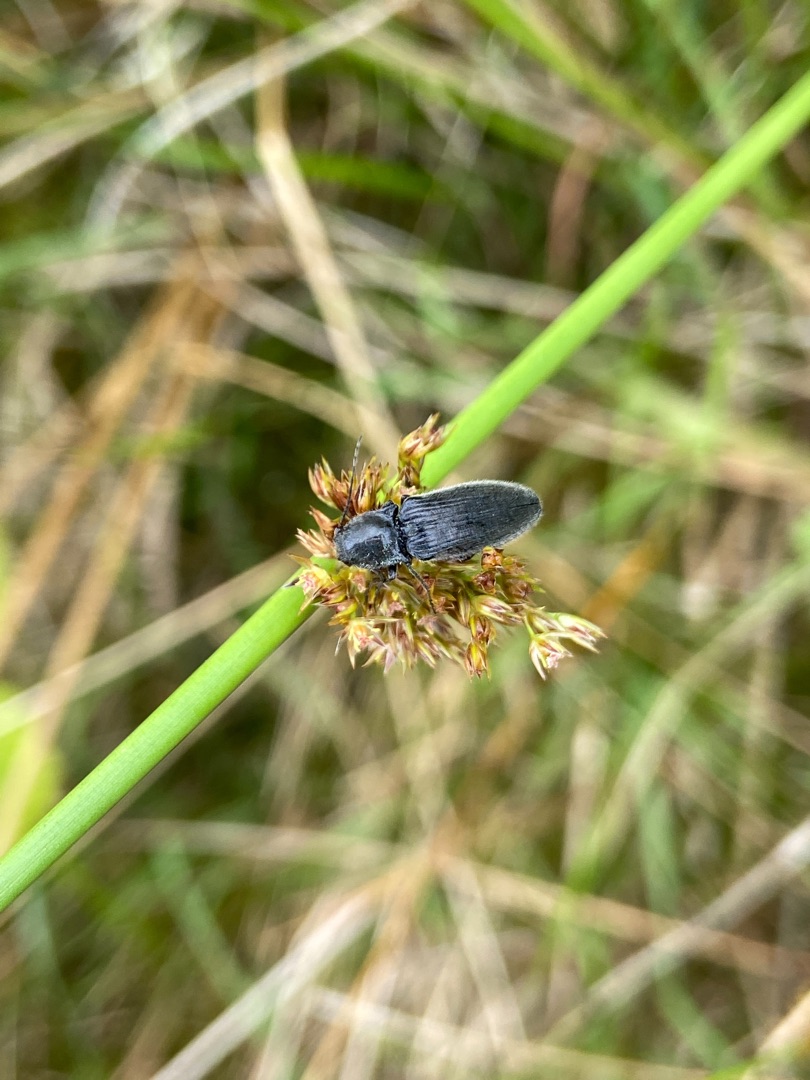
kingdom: Animalia
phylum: Arthropoda
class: Insecta
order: Coleoptera
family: Elateridae
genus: Hemicrepidius
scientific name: Hemicrepidius
